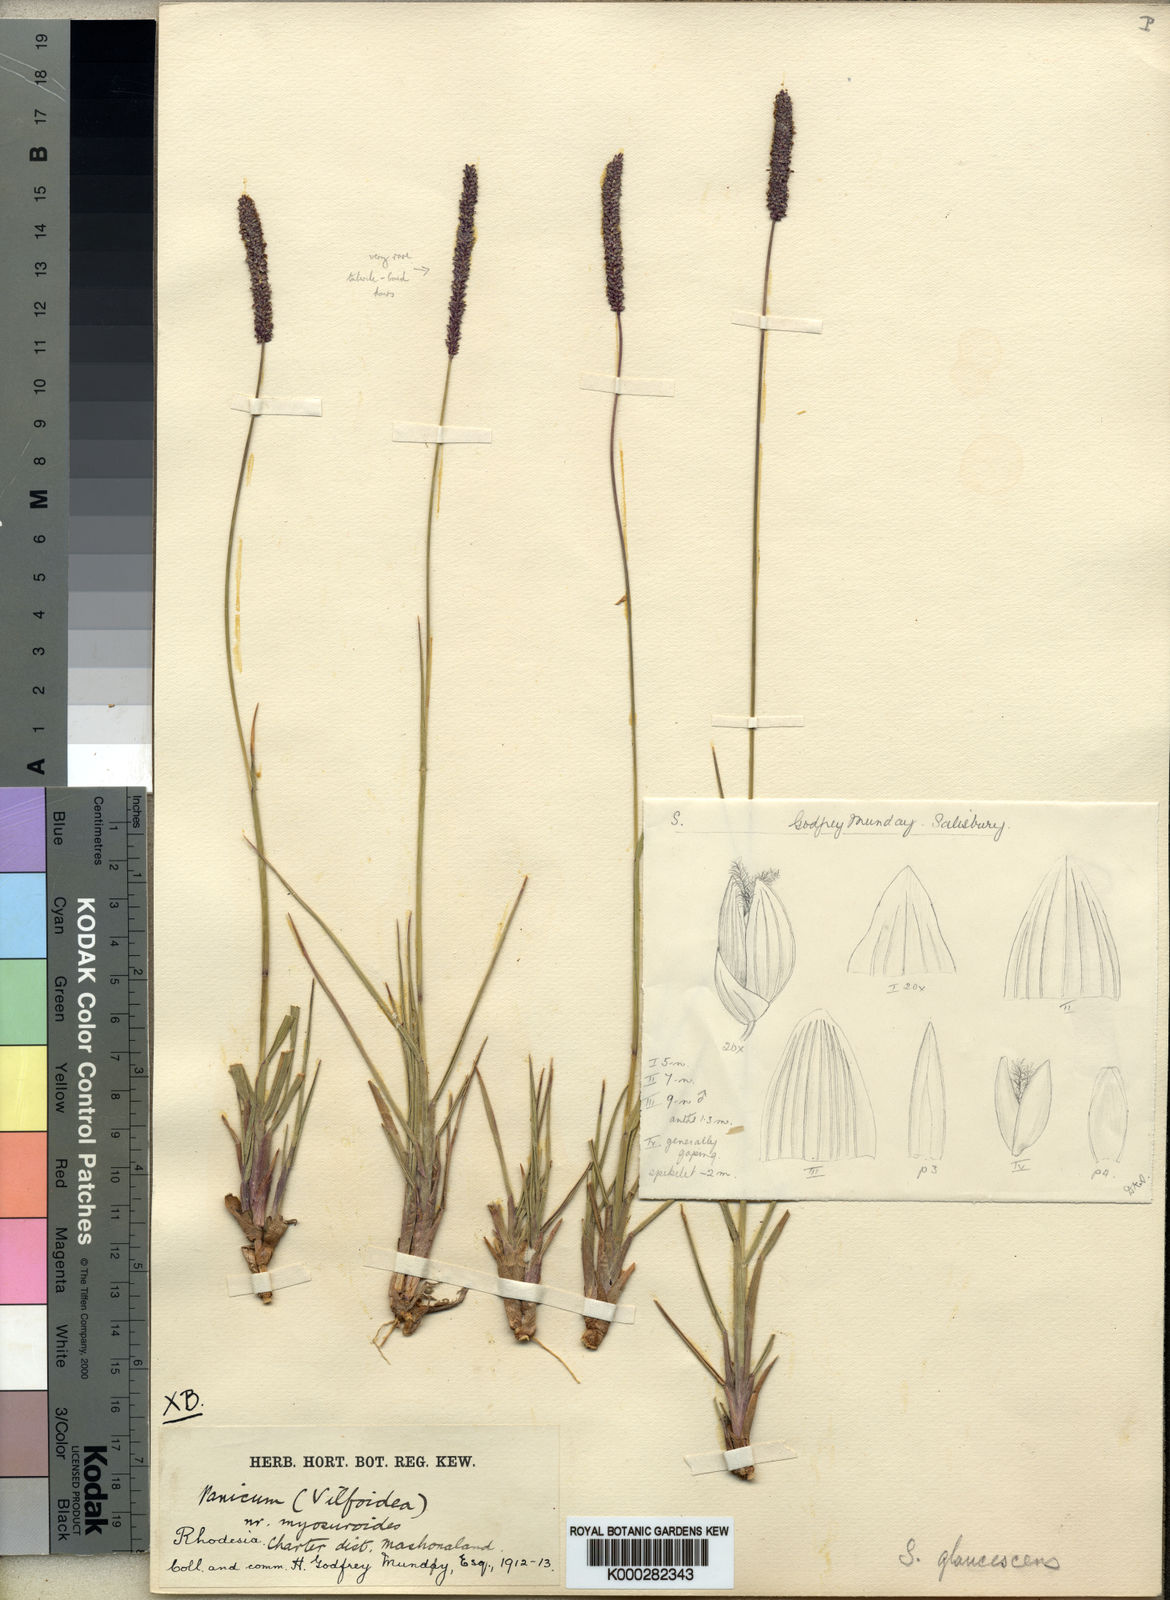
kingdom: Plantae
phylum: Tracheophyta
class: Liliopsida
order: Poales
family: Poaceae
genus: Sacciolepis
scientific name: Sacciolepis typhura
